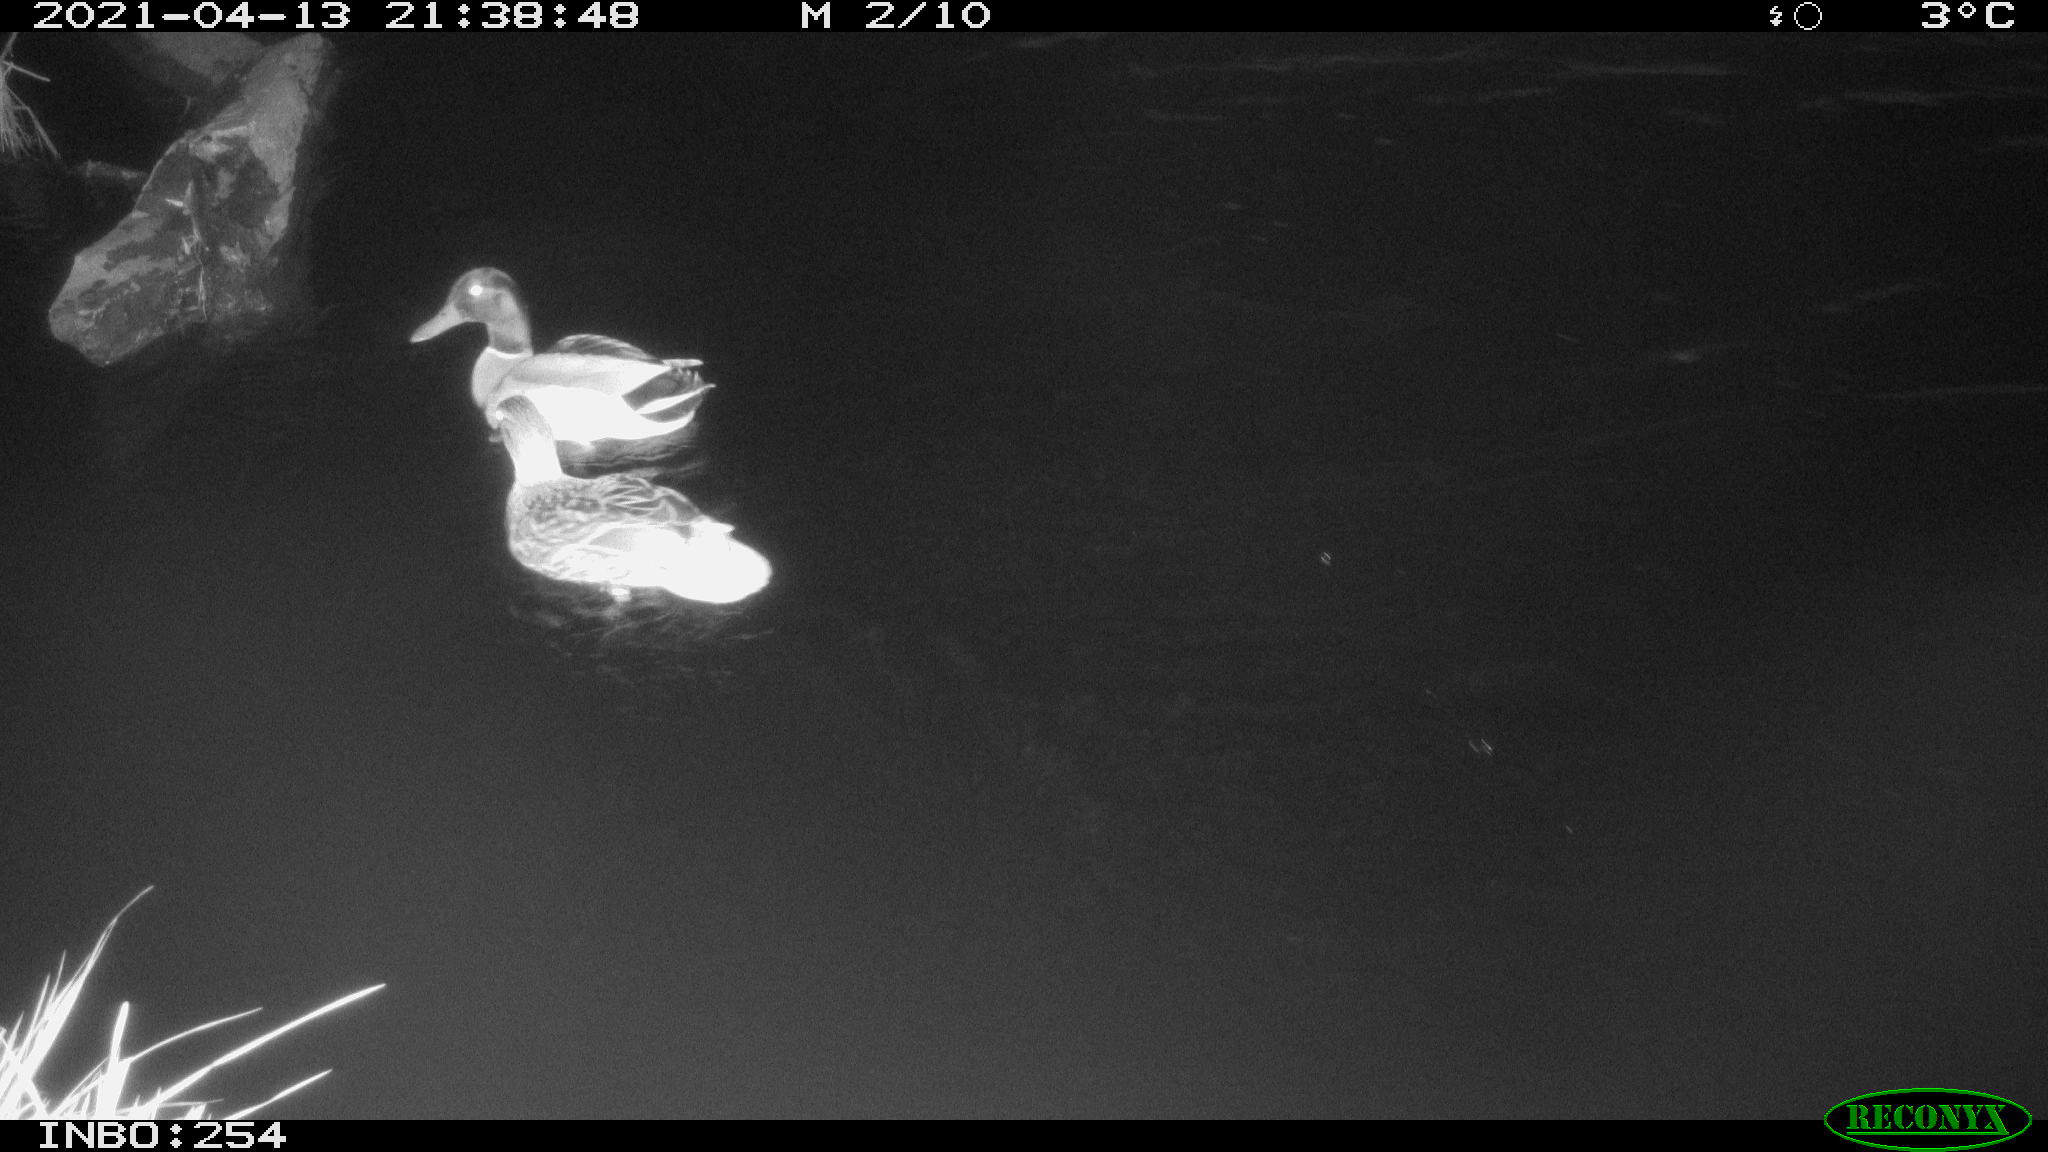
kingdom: Animalia
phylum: Chordata
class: Aves
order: Anseriformes
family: Anatidae
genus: Anas
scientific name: Anas
